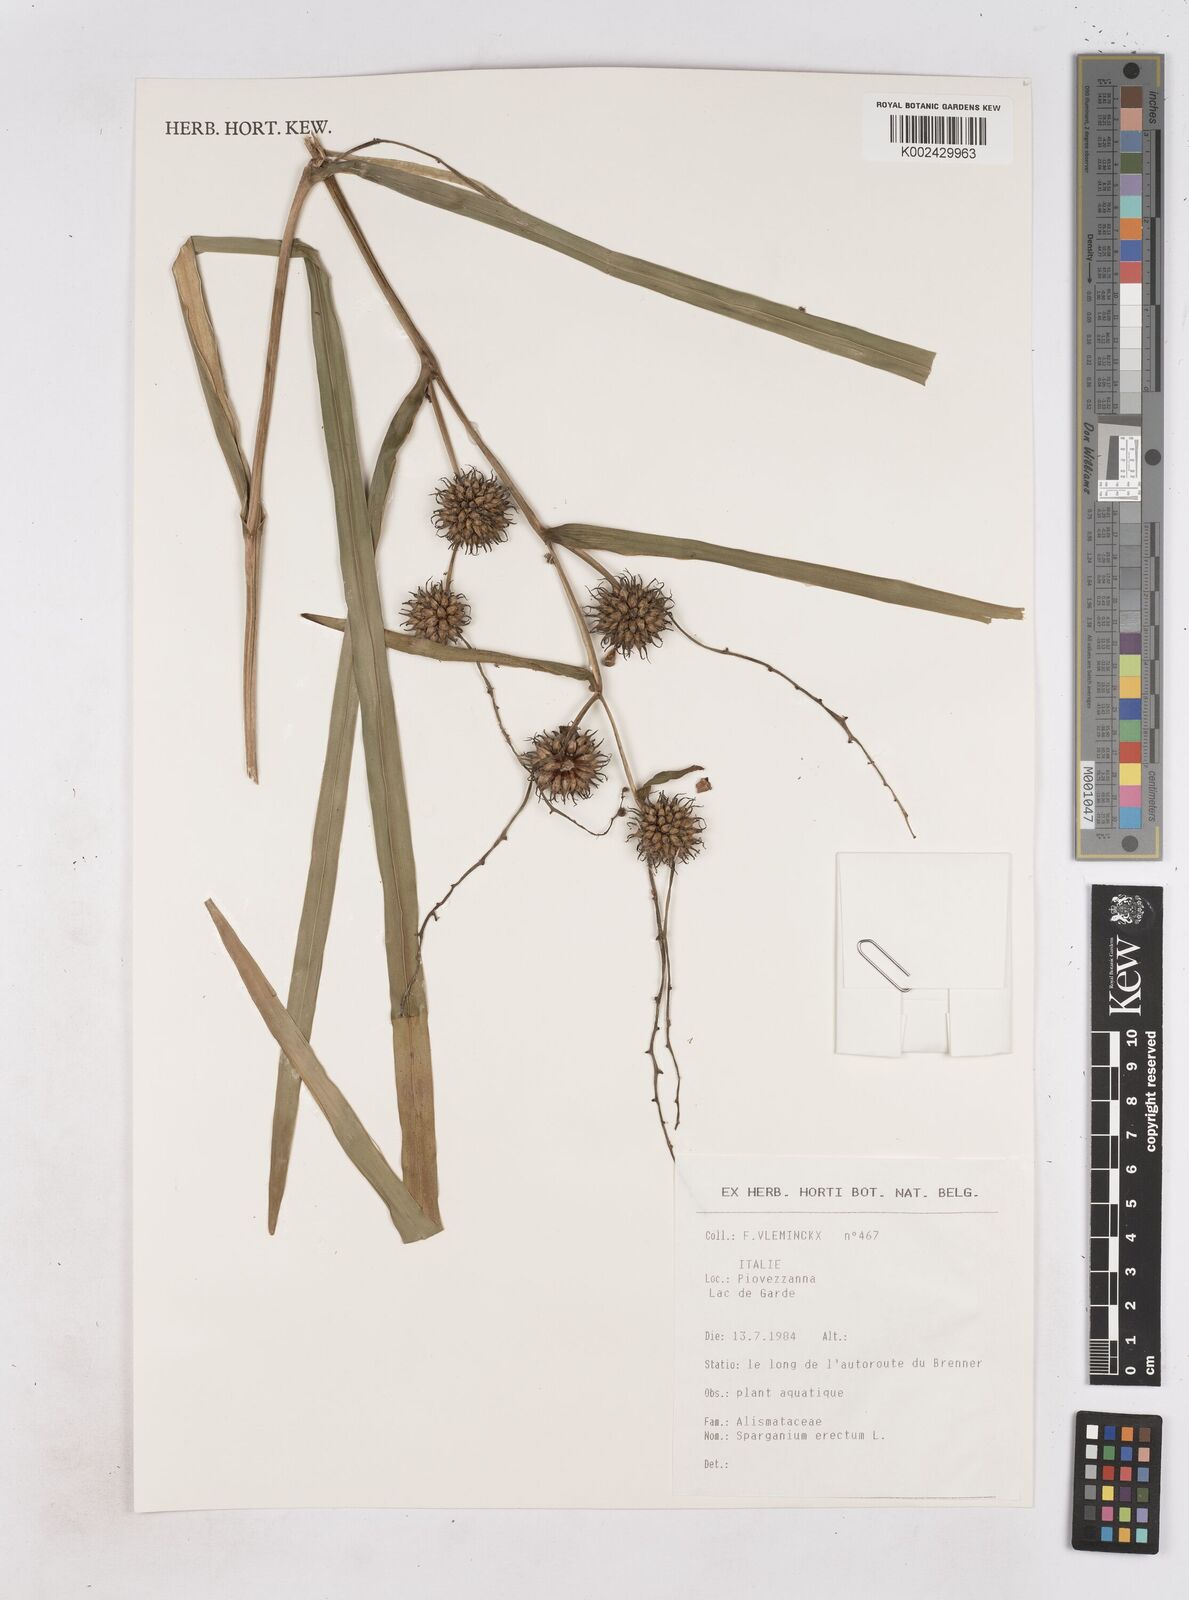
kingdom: Plantae
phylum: Tracheophyta
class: Liliopsida
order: Poales
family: Typhaceae
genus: Sparganium
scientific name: Sparganium erectum
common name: Branched bur-reed
